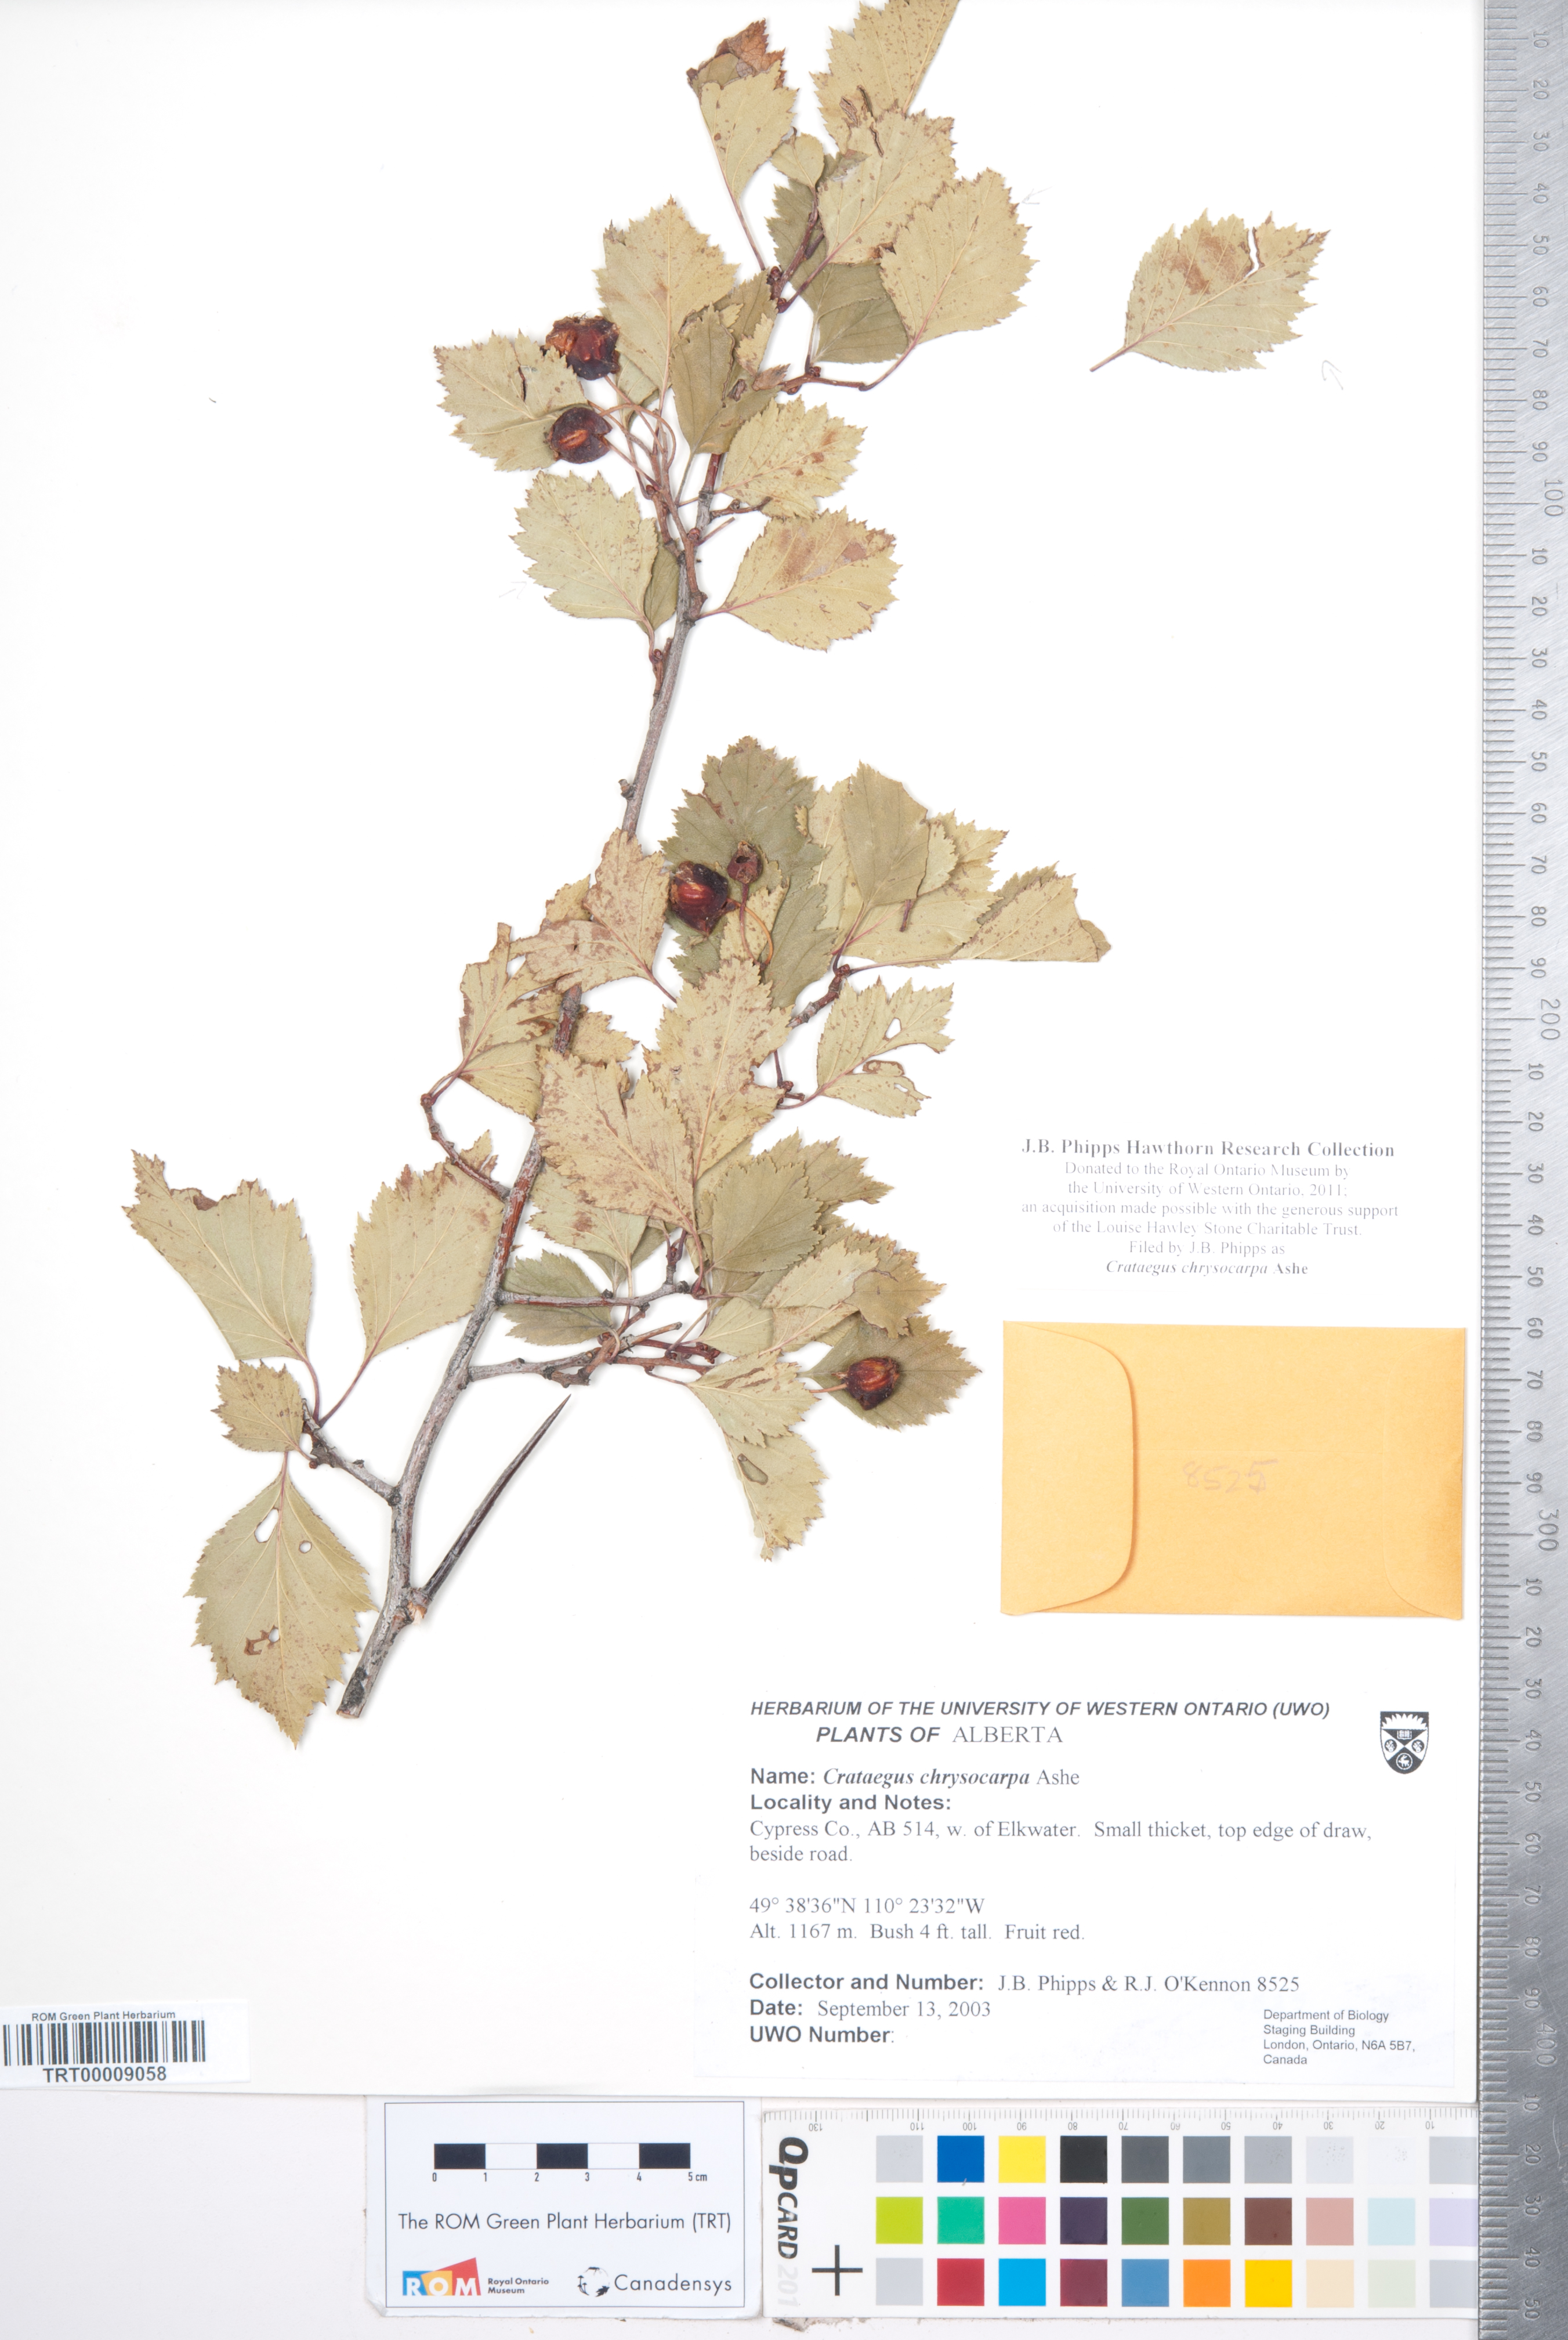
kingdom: Plantae
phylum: Tracheophyta
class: Magnoliopsida
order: Rosales
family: Rosaceae
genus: Crataegus
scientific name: Crataegus chrysocarpa
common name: Fire-berry hawthorn
